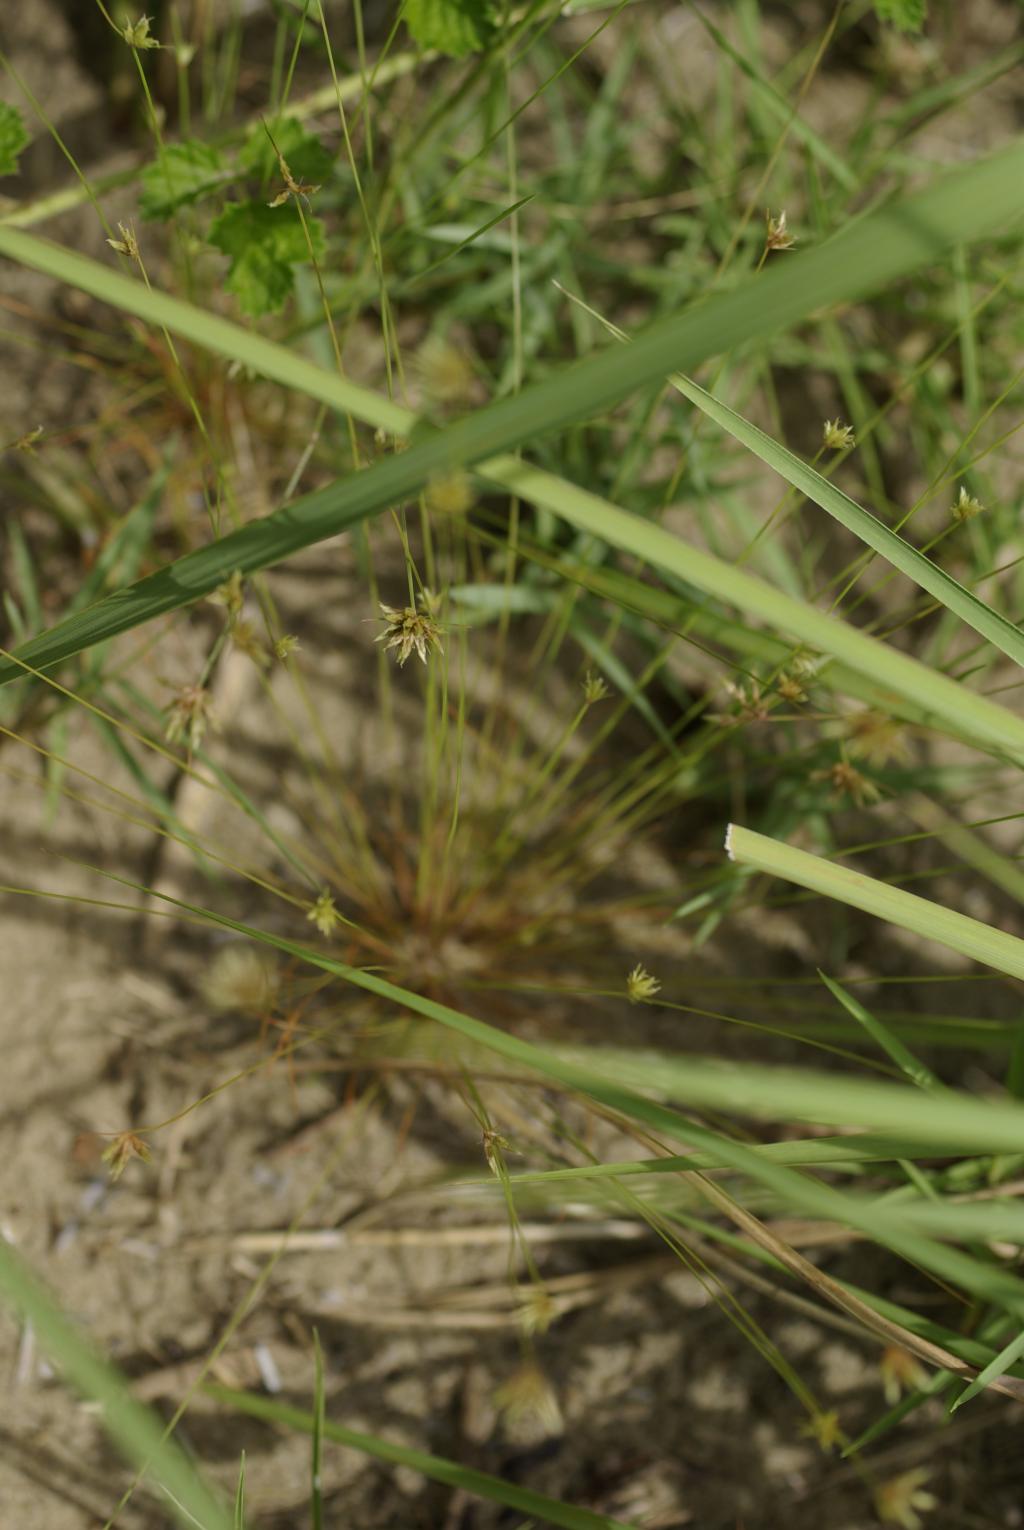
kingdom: Plantae
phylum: Tracheophyta
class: Liliopsida
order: Poales
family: Cyperaceae
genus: Bulbostylis
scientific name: Bulbostylis barbata
